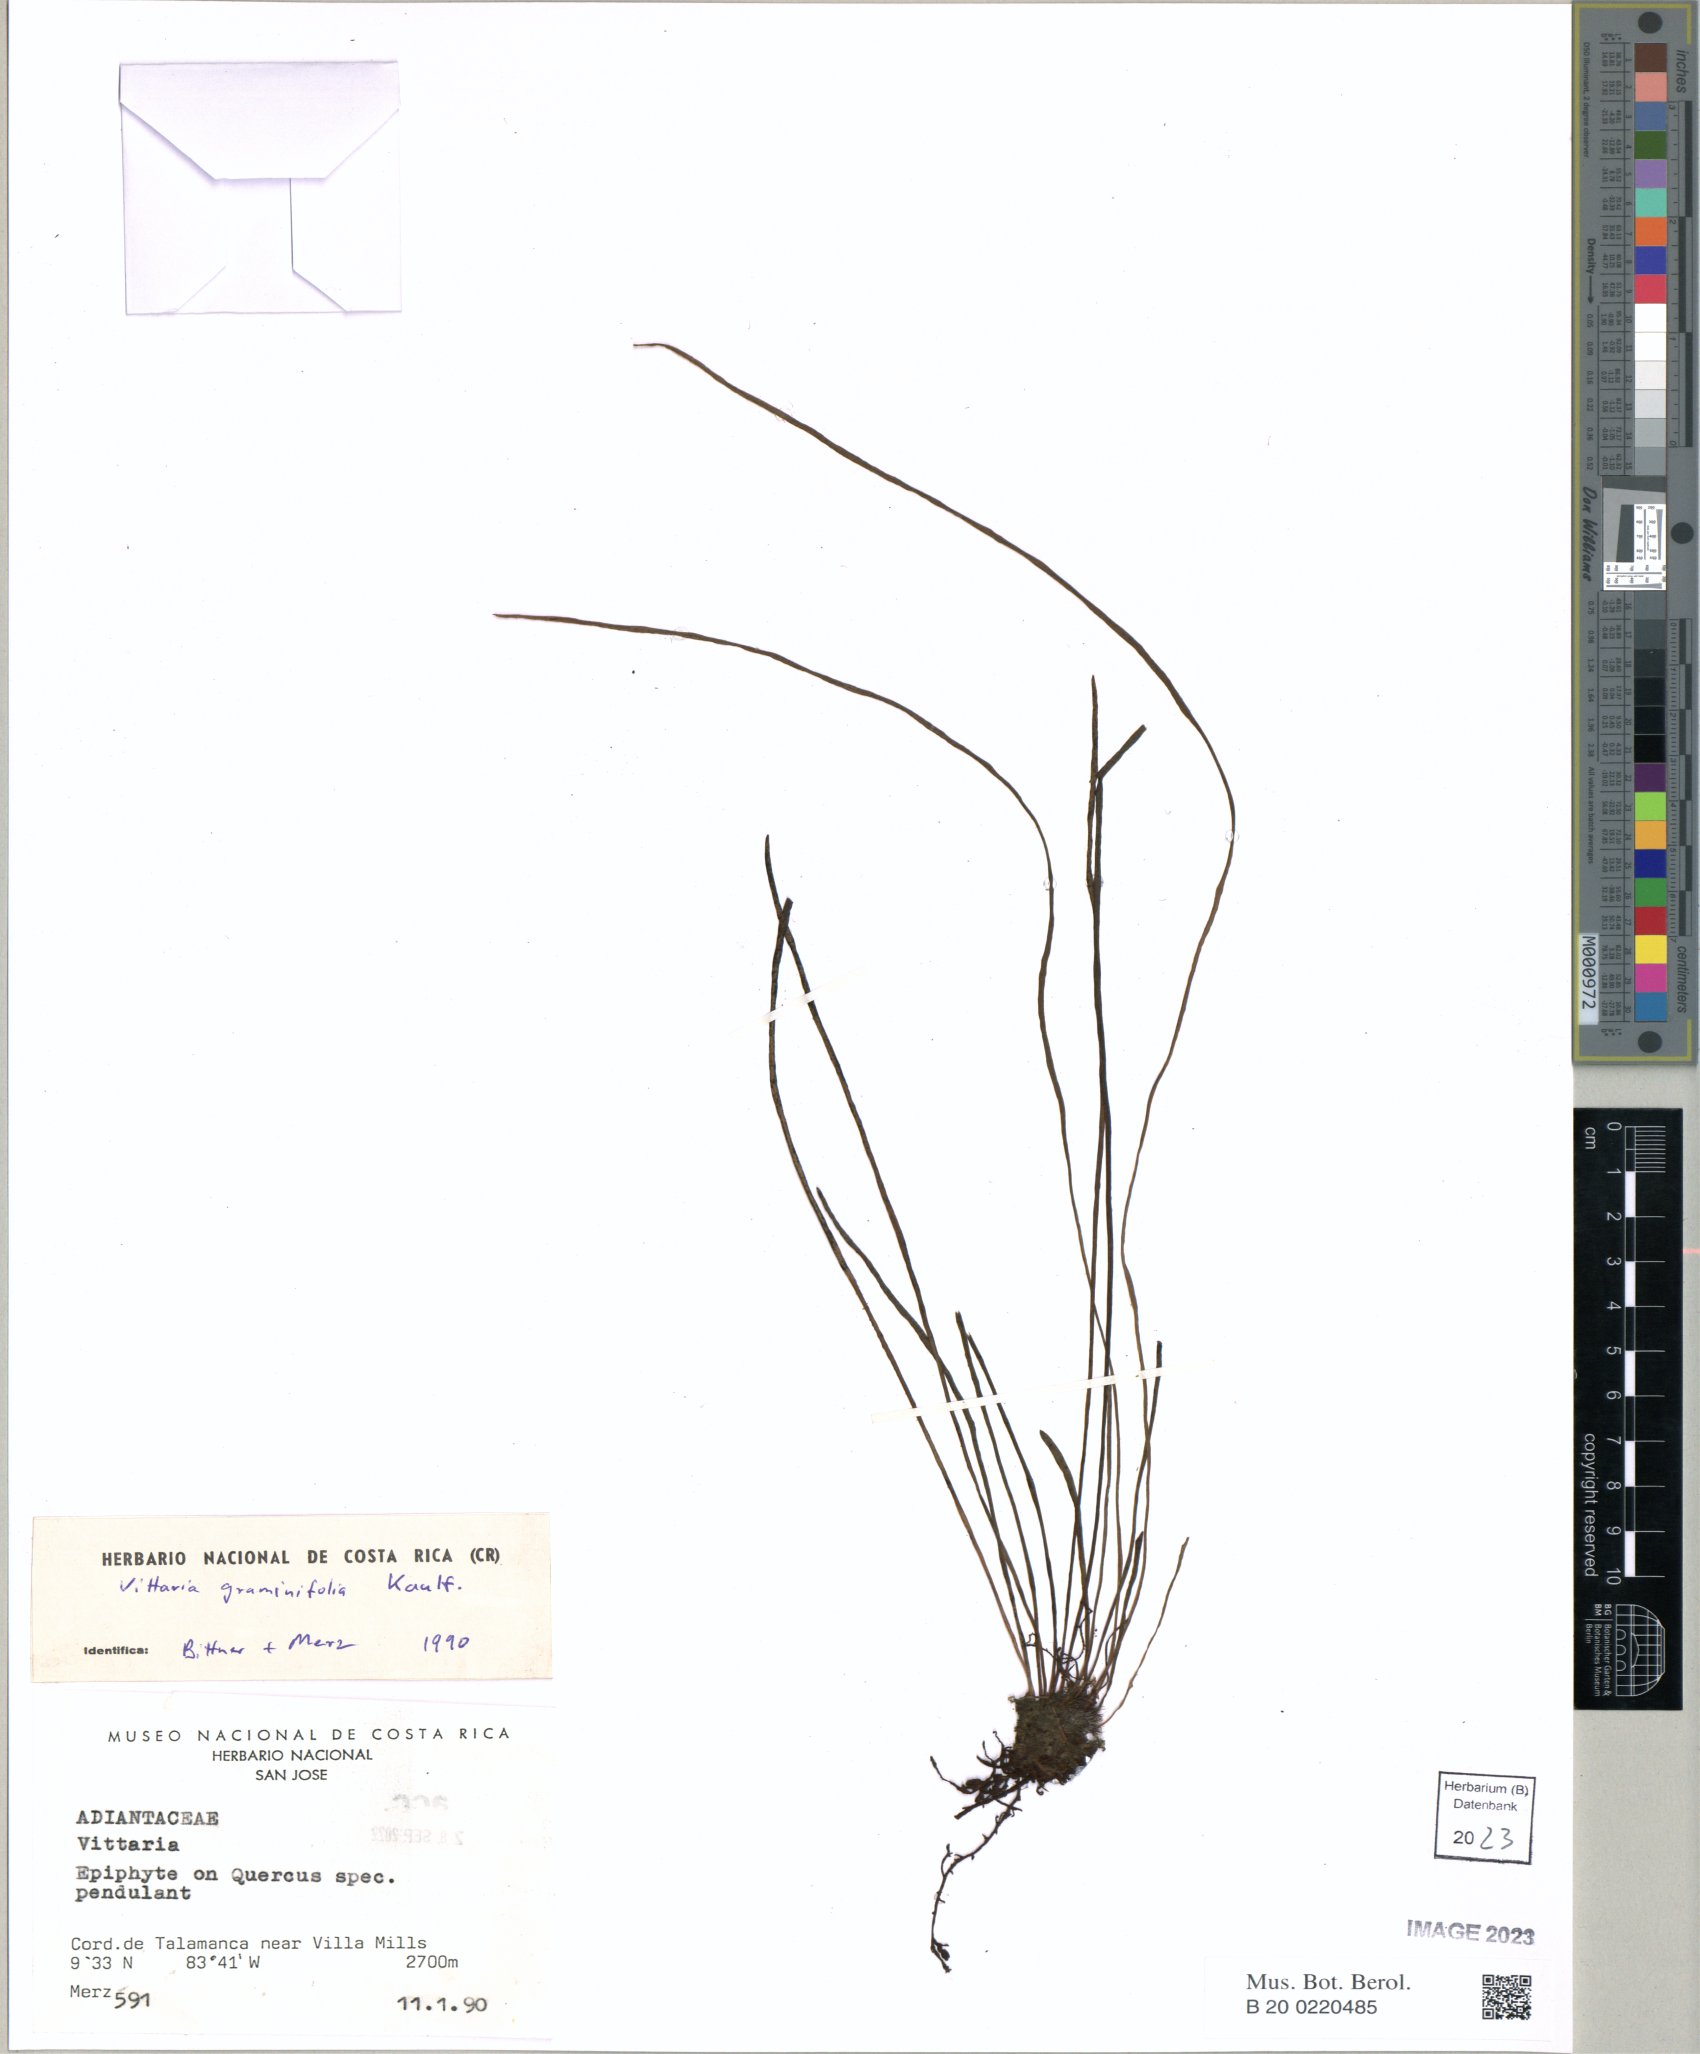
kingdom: Plantae
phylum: Tracheophyta
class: Polypodiopsida
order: Polypodiales
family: Pteridaceae
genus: Vittaria
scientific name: Vittaria graminifolia
